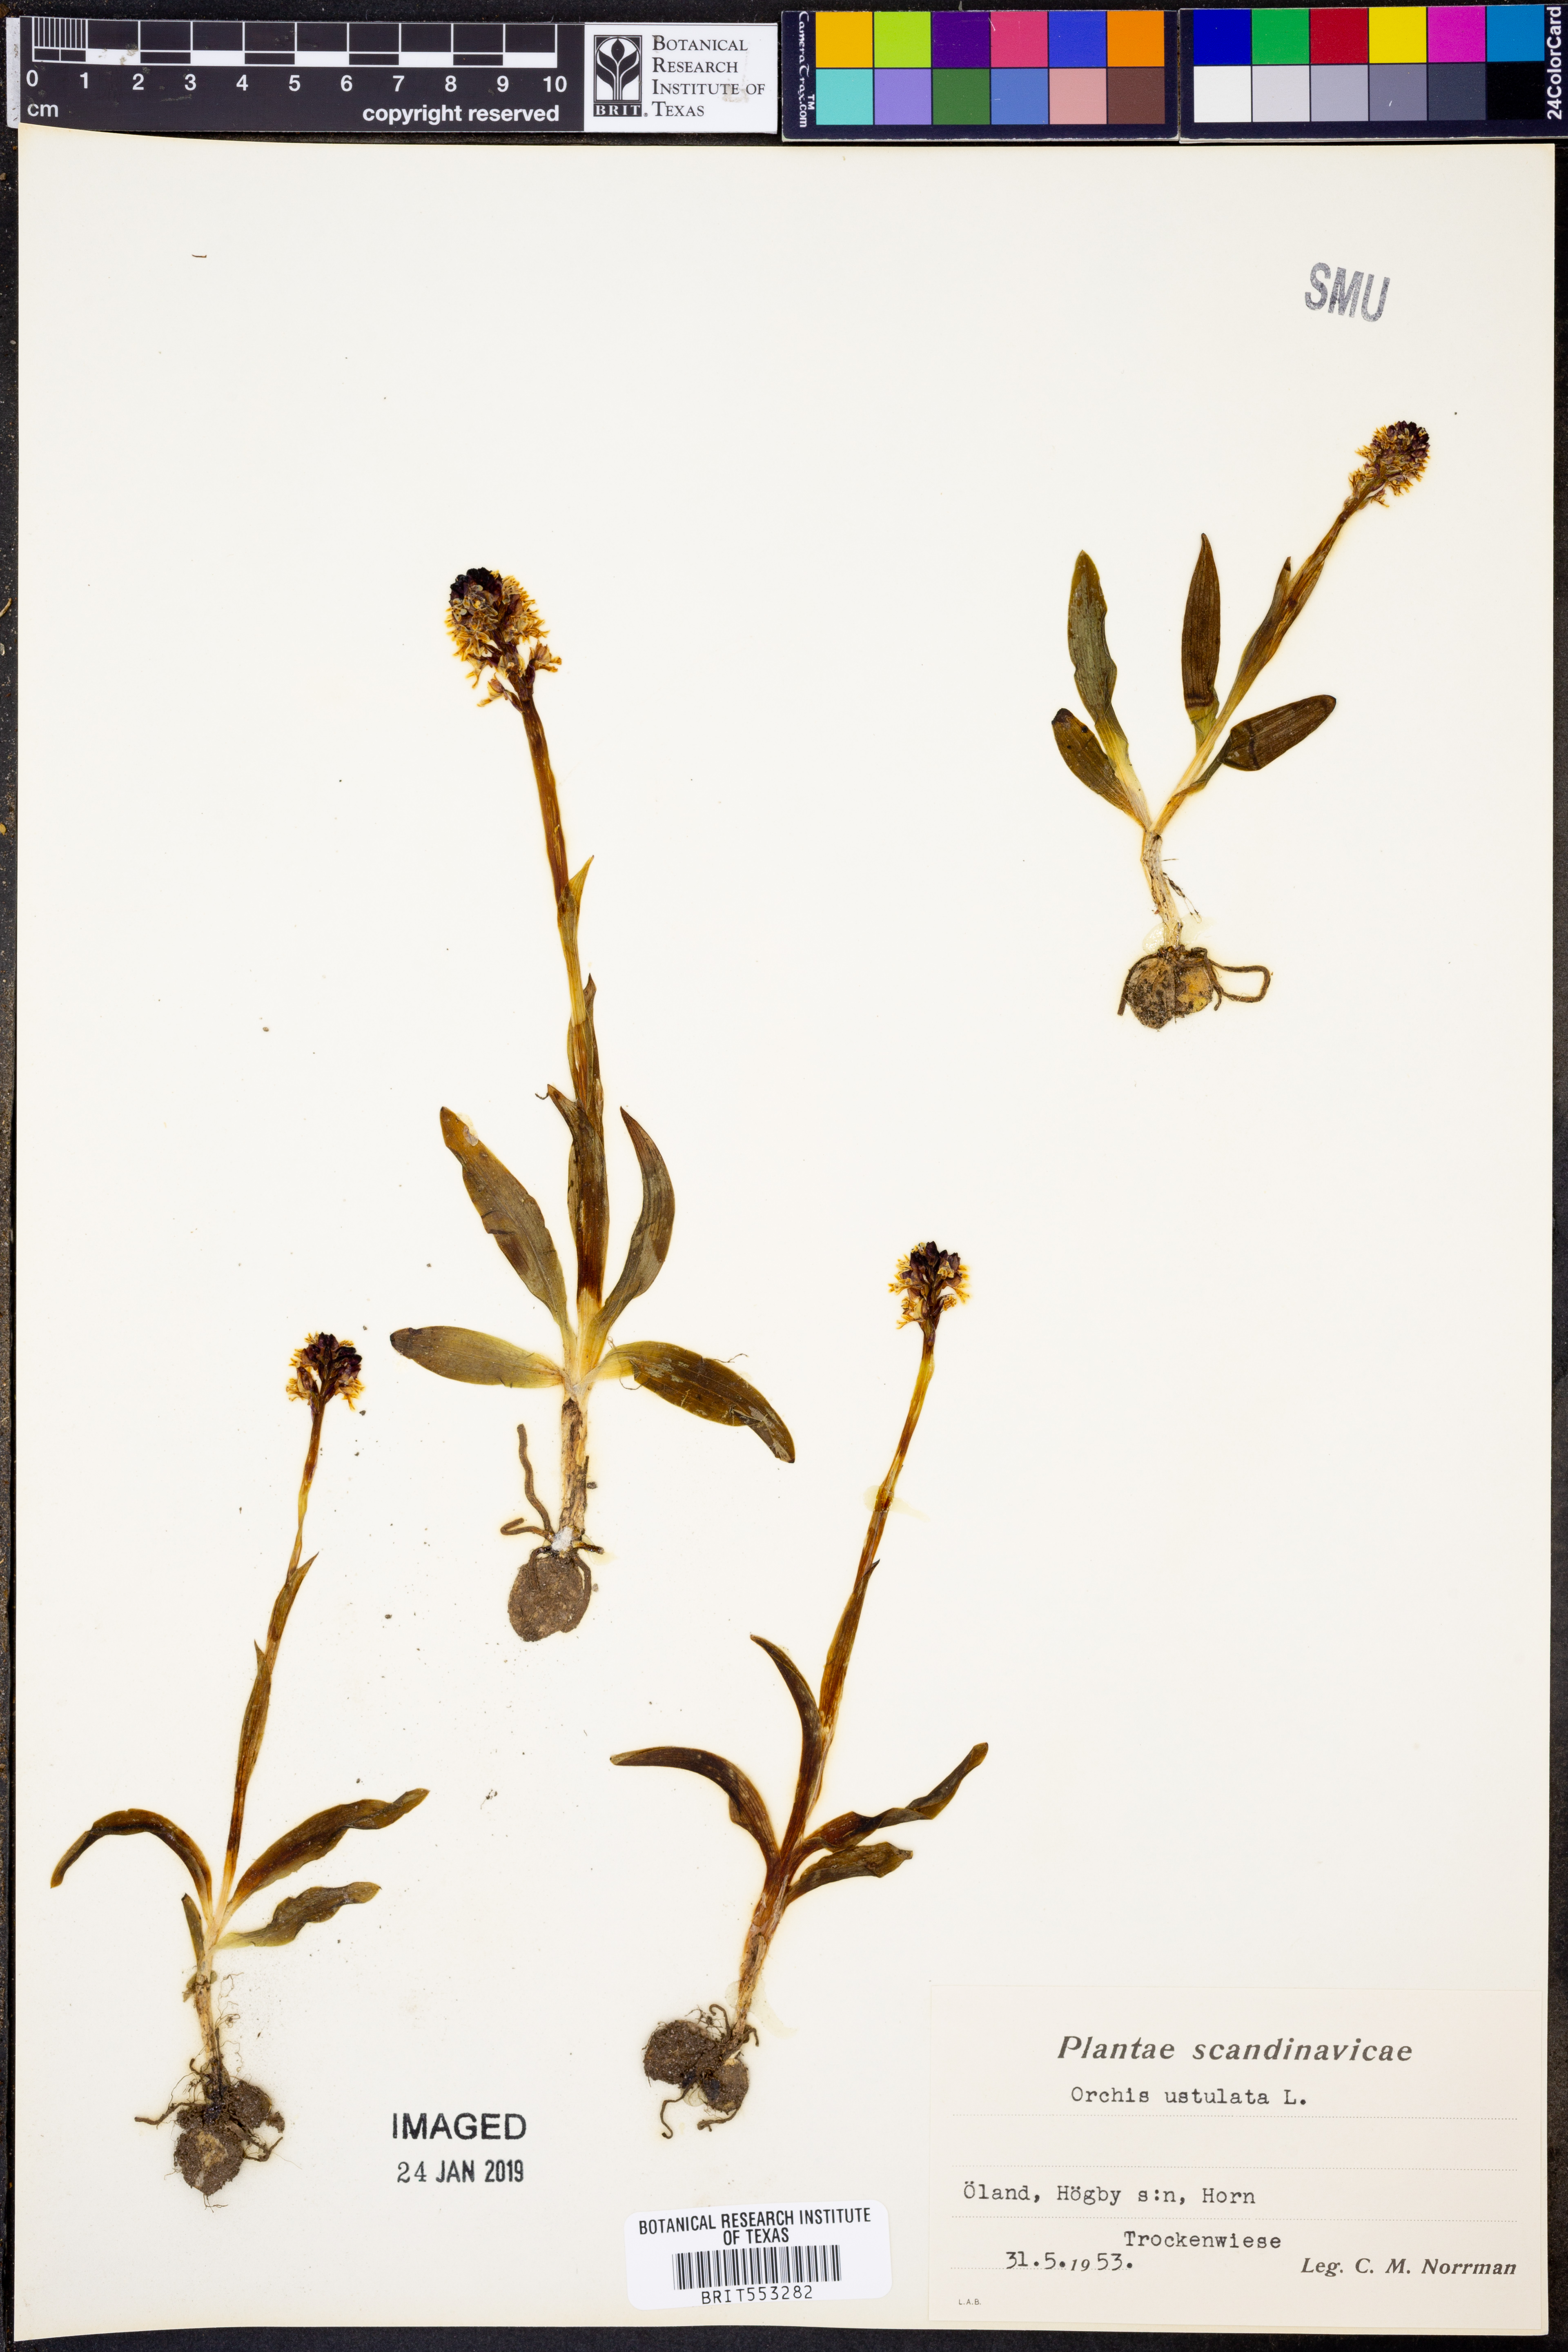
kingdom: Plantae
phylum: Tracheophyta
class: Liliopsida
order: Asparagales
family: Orchidaceae
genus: Neotinea
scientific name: Neotinea ustulata
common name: Burnt orchid
